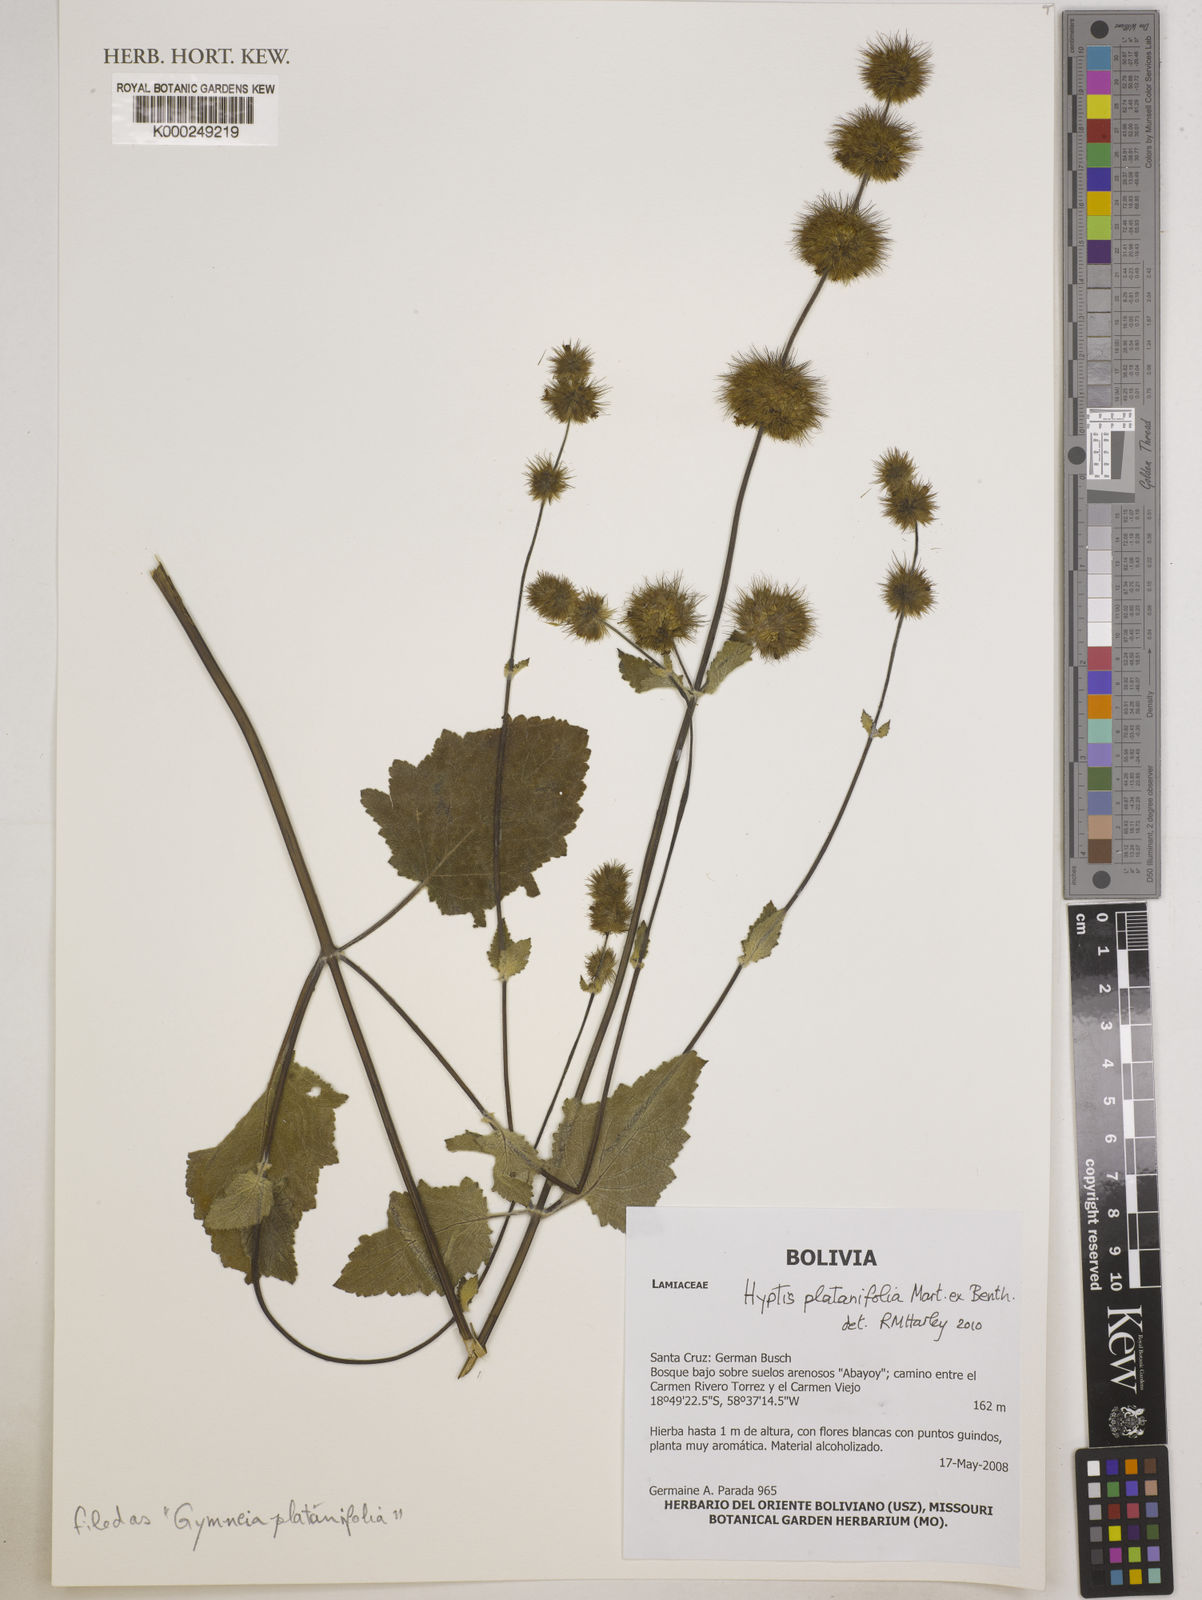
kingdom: Plantae
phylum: Tracheophyta
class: Magnoliopsida
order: Lamiales
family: Lamiaceae
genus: Gymneia
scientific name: Gymneia platanifolia
